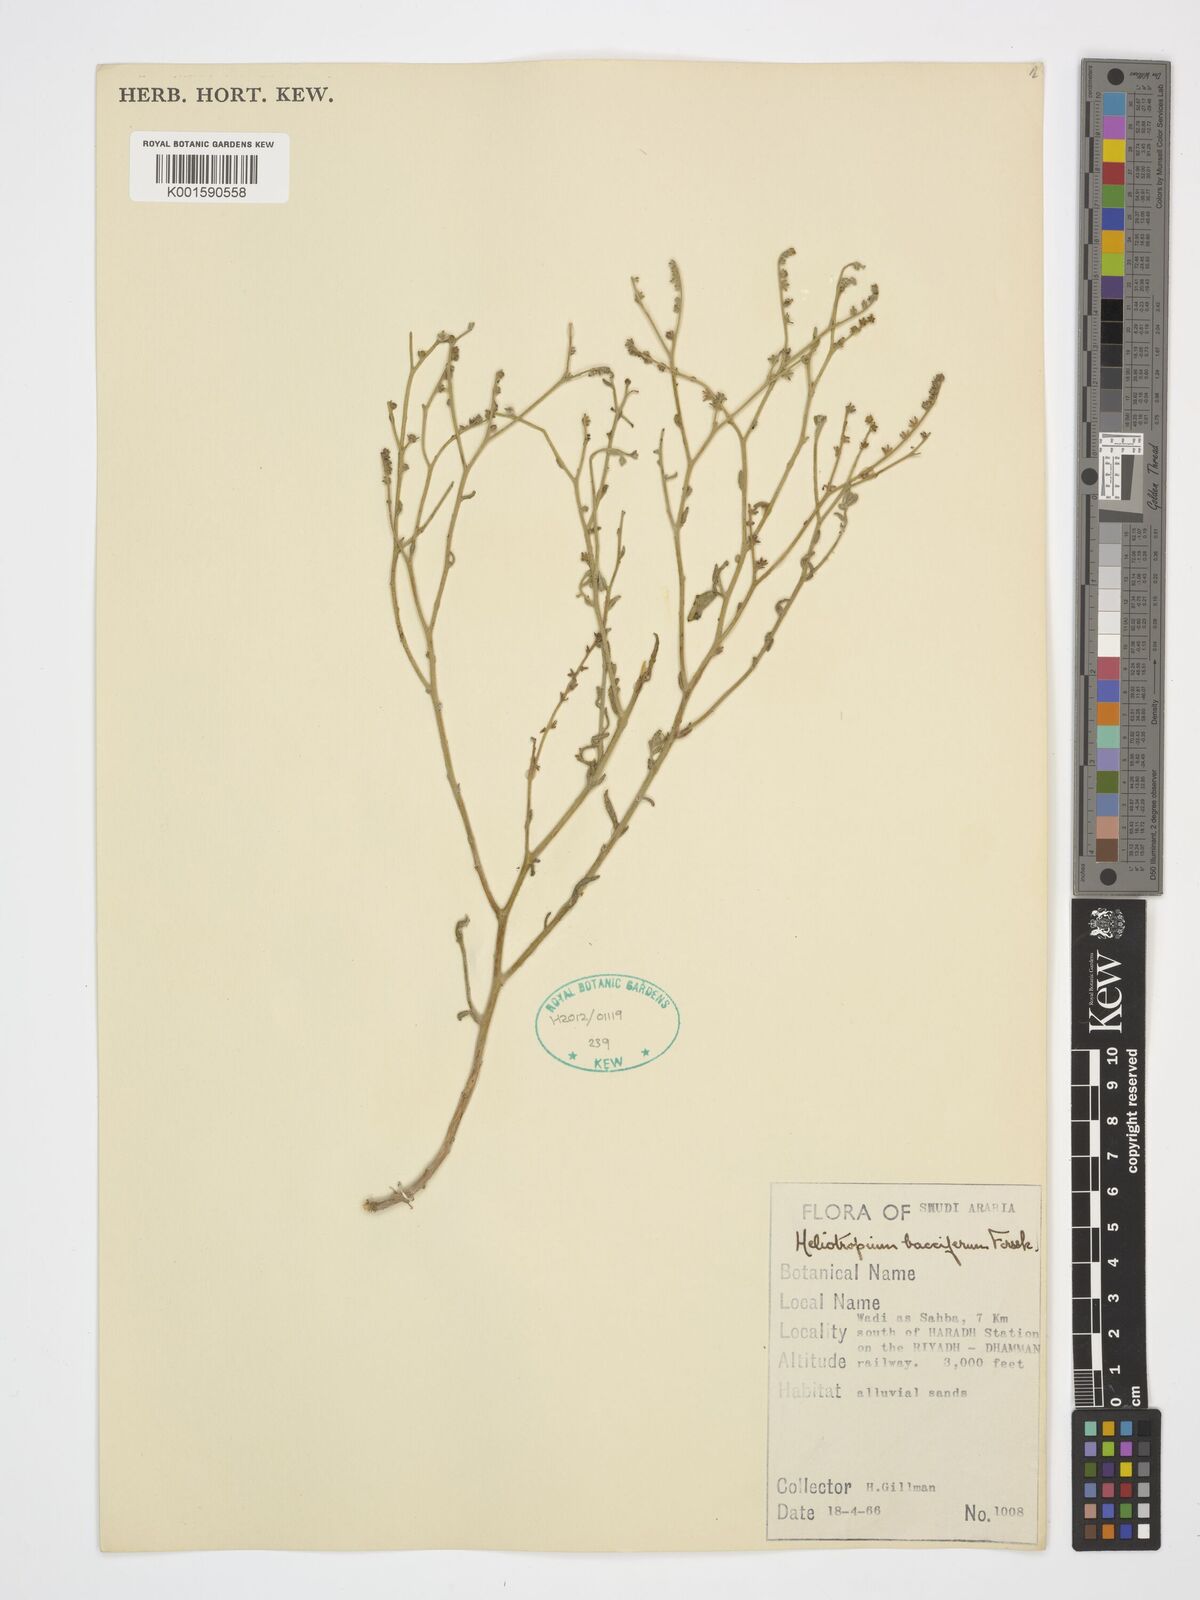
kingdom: Plantae
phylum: Tracheophyta
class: Magnoliopsida
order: Boraginales
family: Heliotropiaceae
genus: Heliotropium
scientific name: Heliotropium bacciferum
